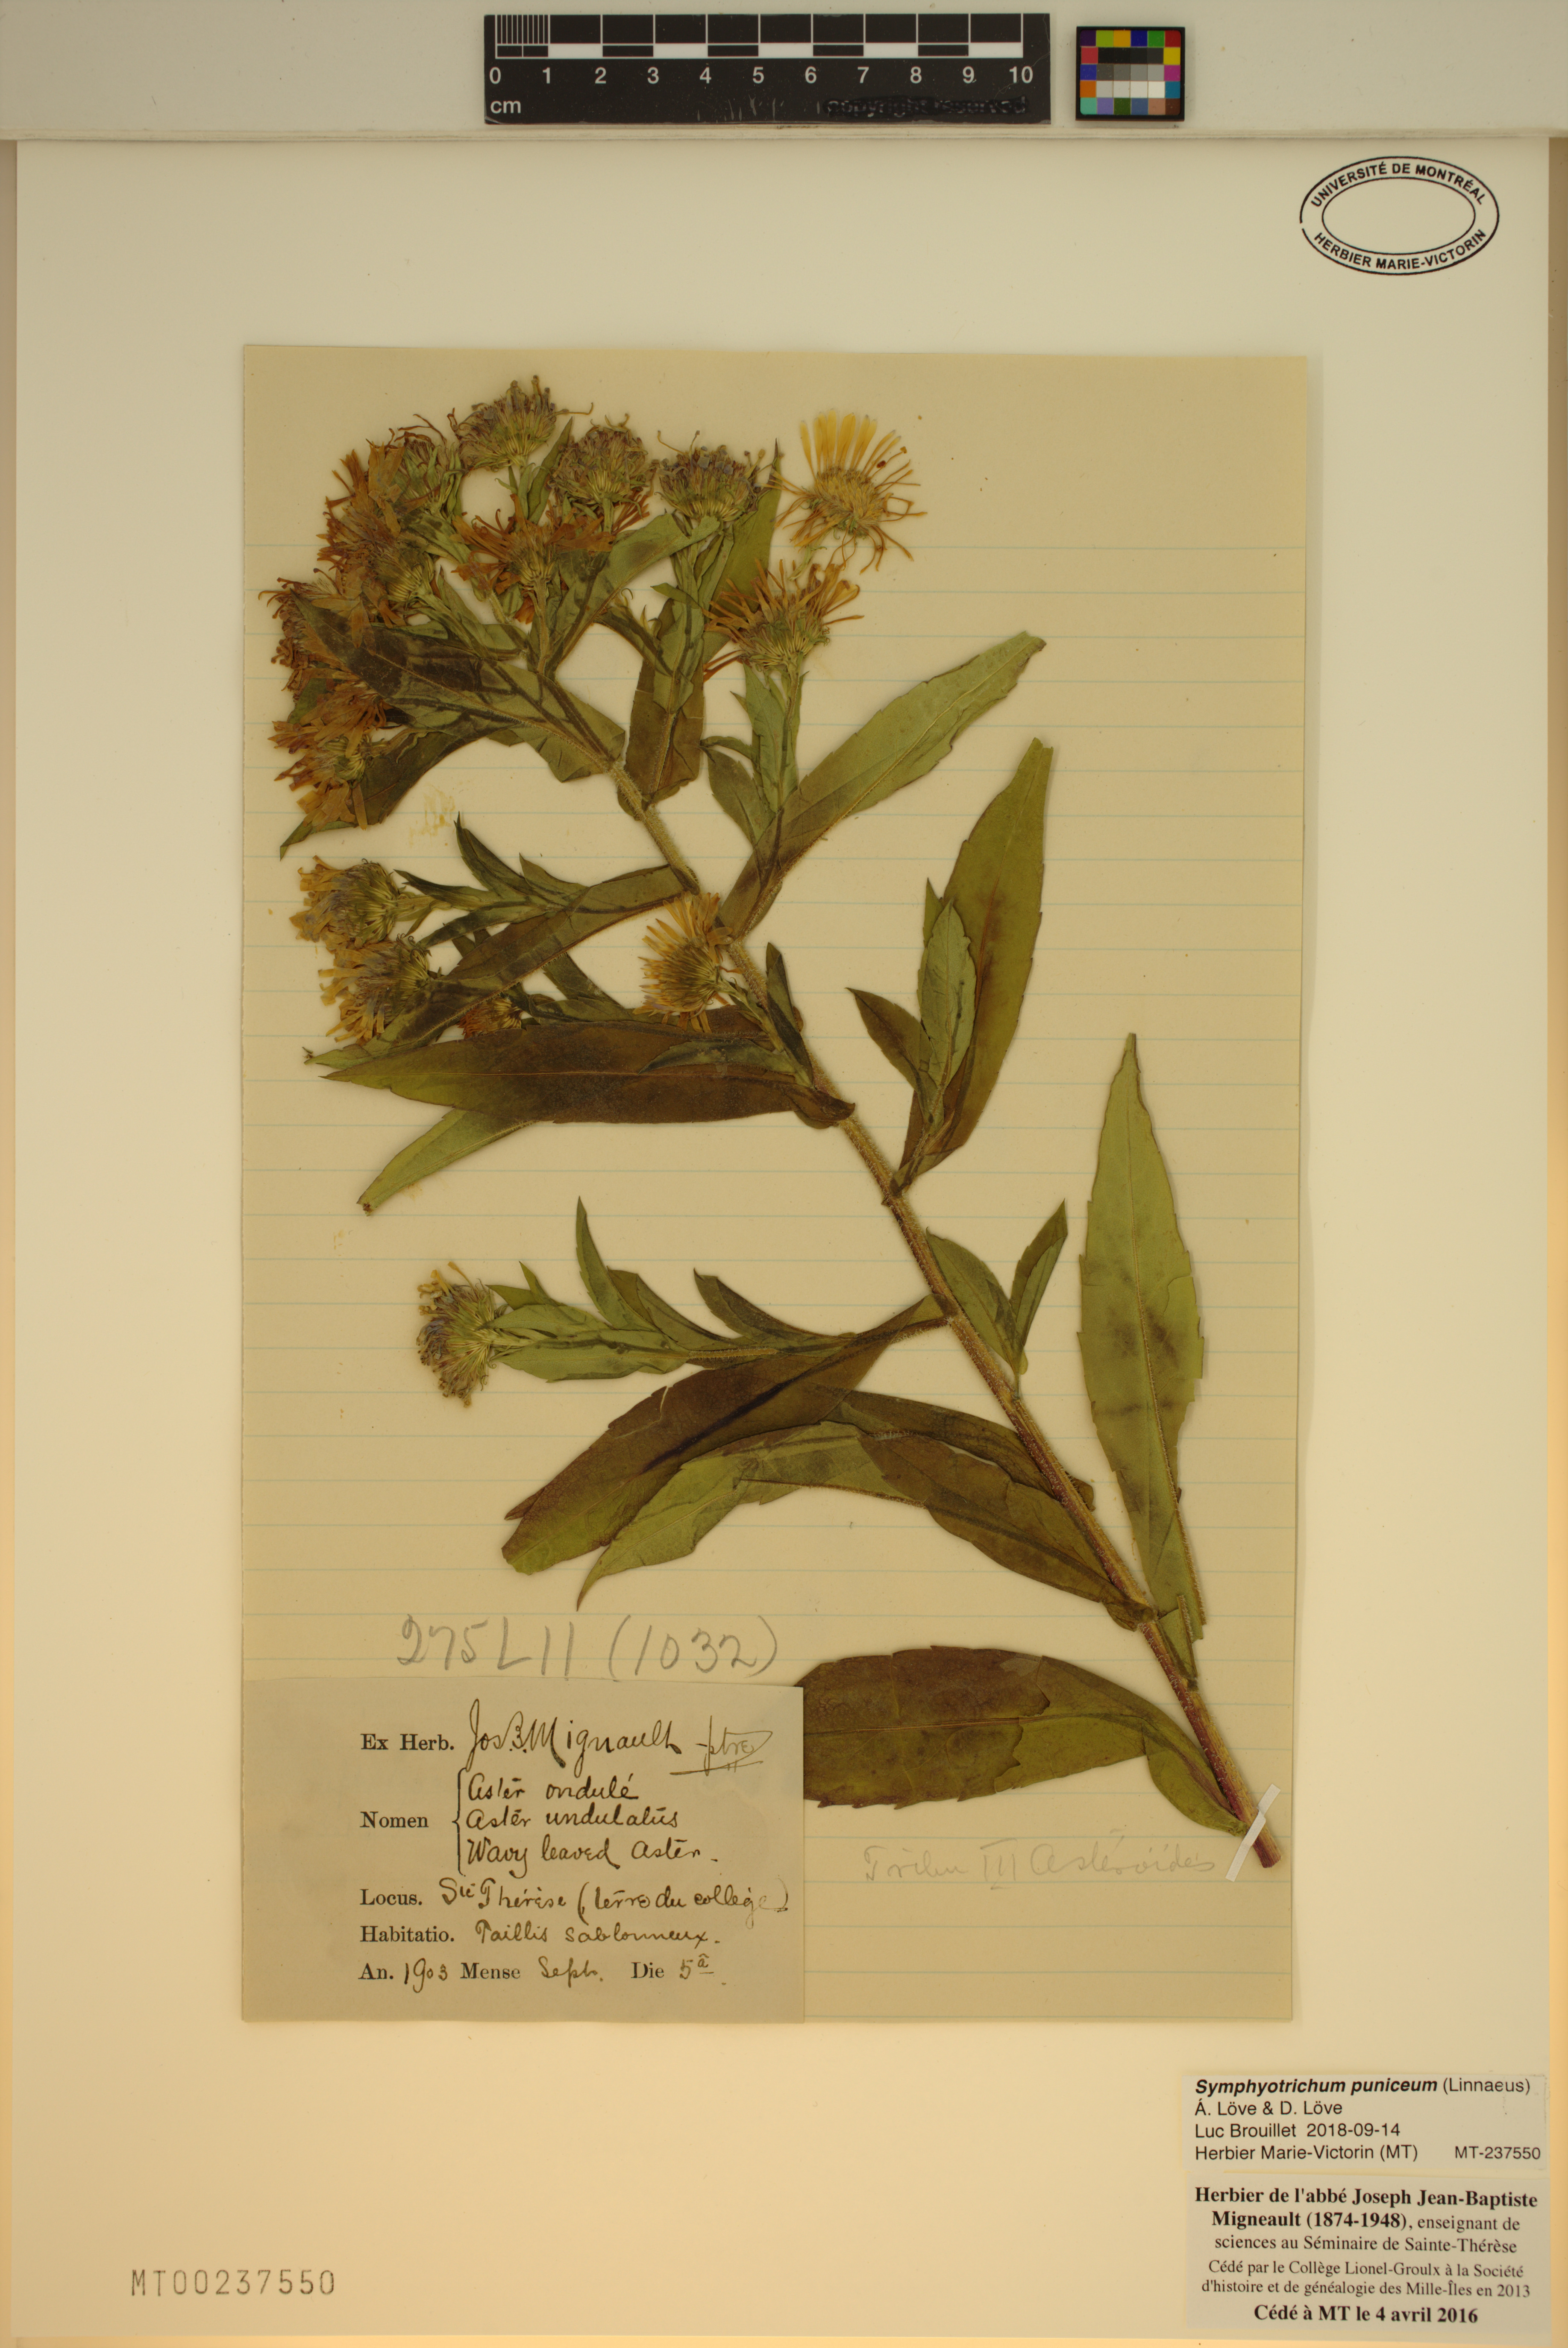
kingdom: Plantae
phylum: Tracheophyta
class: Magnoliopsida
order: Asterales
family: Asteraceae
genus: Symphyotrichum
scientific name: Symphyotrichum puniceum
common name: Bog aster
